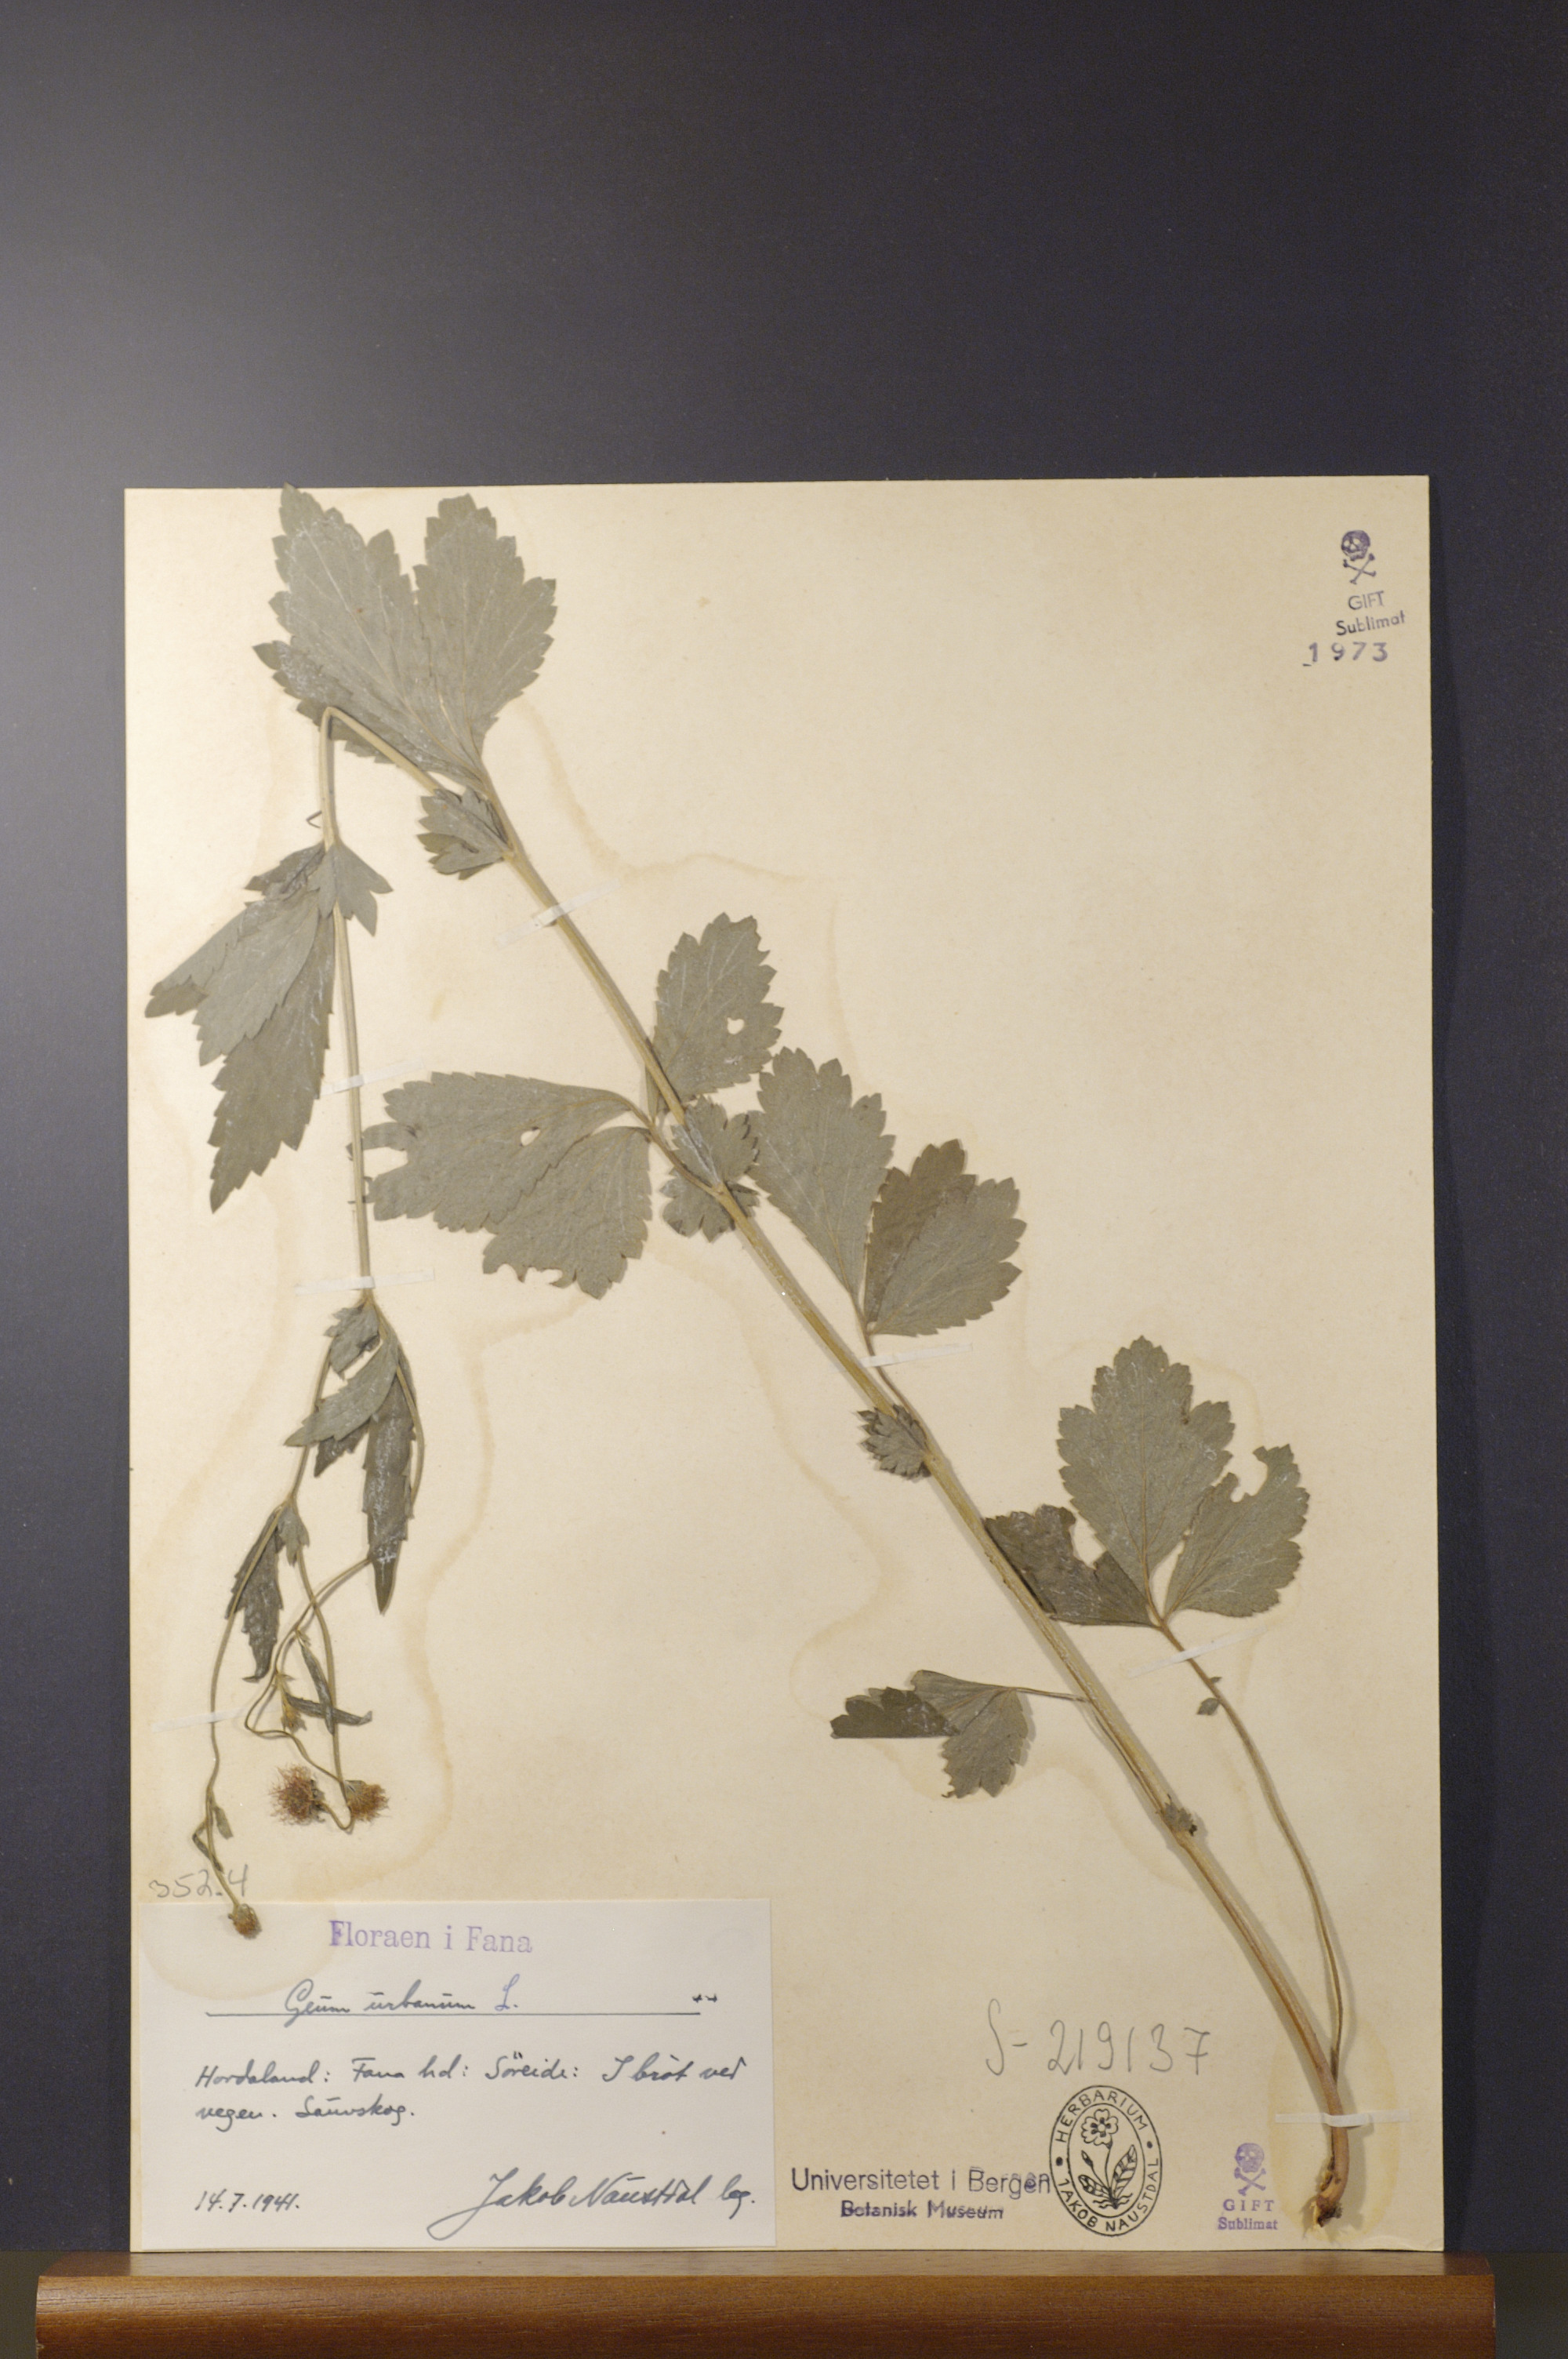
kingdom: Plantae
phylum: Tracheophyta
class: Magnoliopsida
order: Rosales
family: Rosaceae
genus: Geum
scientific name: Geum urbanum
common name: Wood avens
